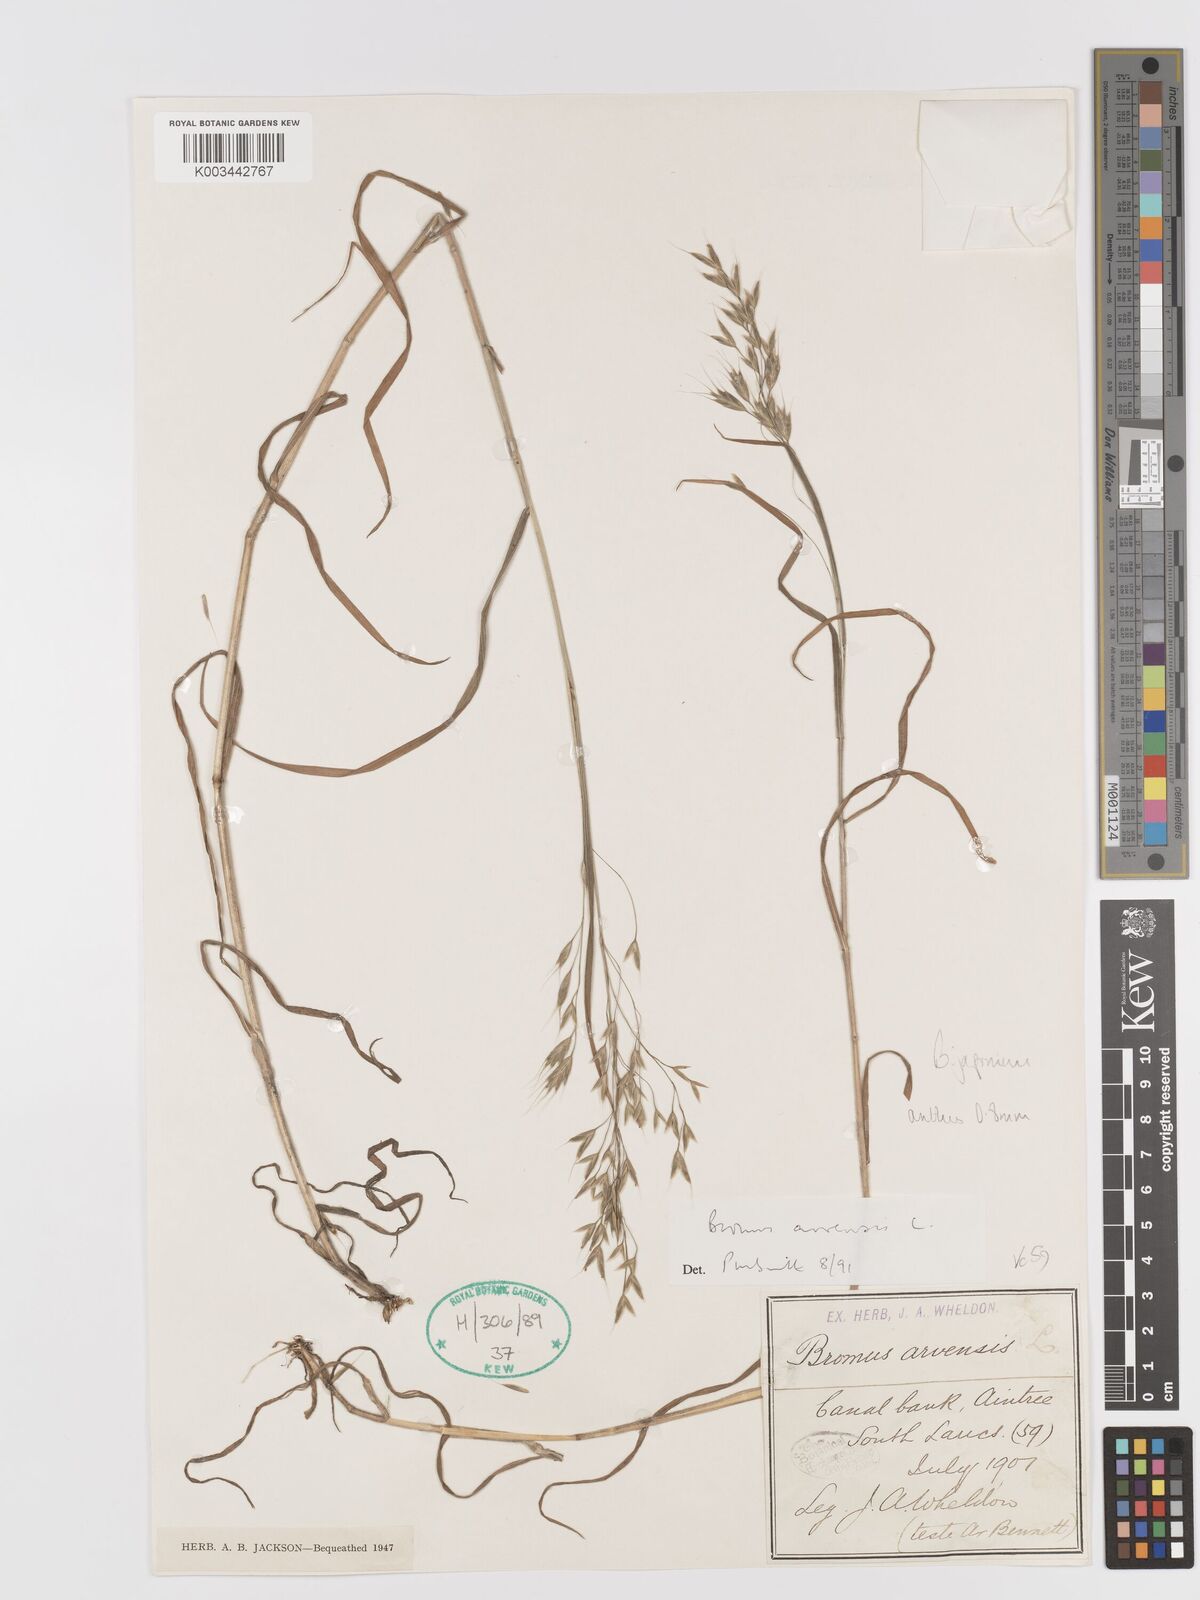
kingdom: Plantae
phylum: Tracheophyta
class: Liliopsida
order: Poales
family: Poaceae
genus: Bromus
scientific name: Bromus japonicus
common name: Japanese brome
